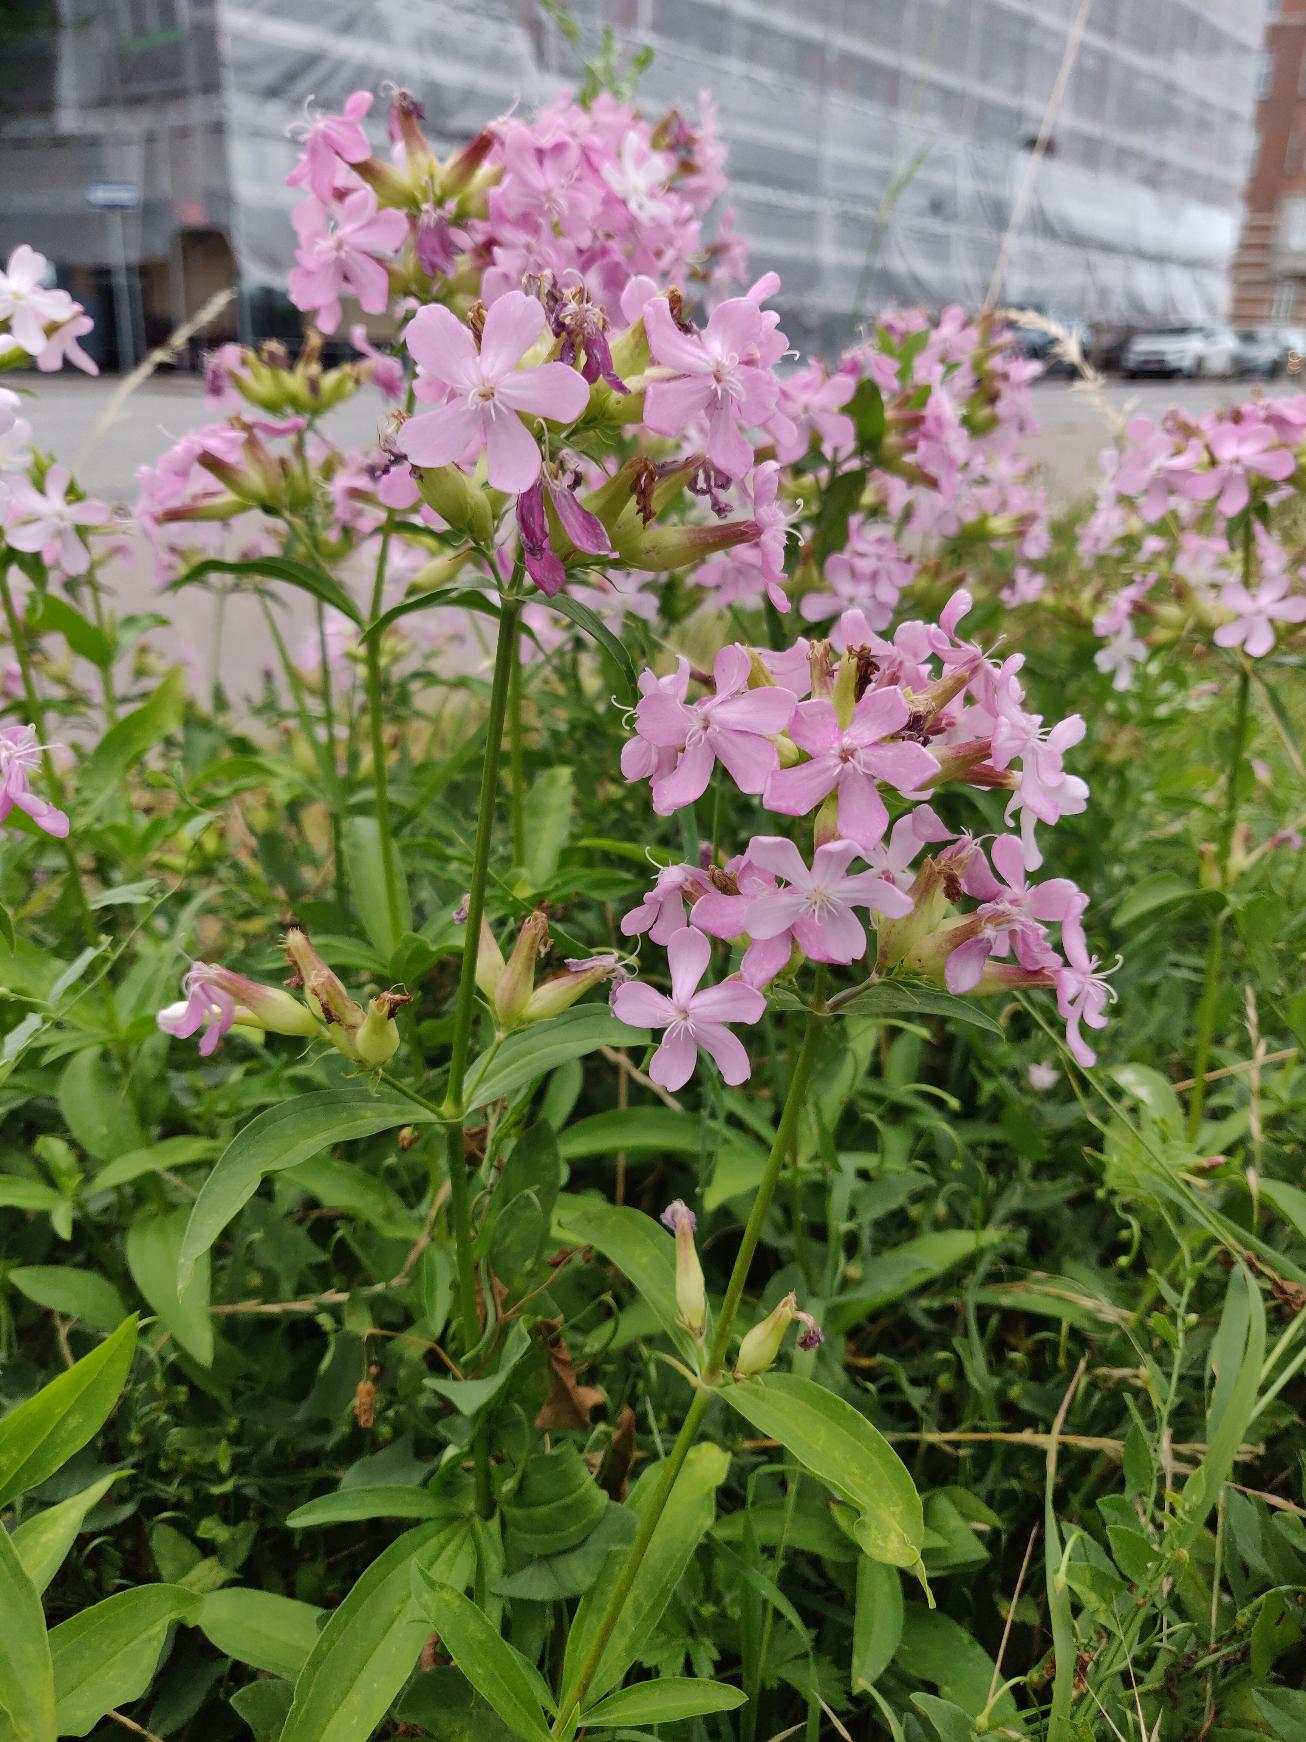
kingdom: Plantae
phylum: Tracheophyta
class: Magnoliopsida
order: Caryophyllales
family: Caryophyllaceae
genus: Saponaria
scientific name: Saponaria officinalis
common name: Sæbeurt
